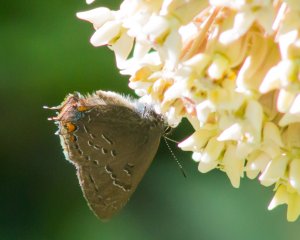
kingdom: Animalia
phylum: Arthropoda
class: Insecta
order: Lepidoptera
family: Lycaenidae
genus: Satyrium
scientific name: Satyrium edwardsii
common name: Edwards' Hairstreak
